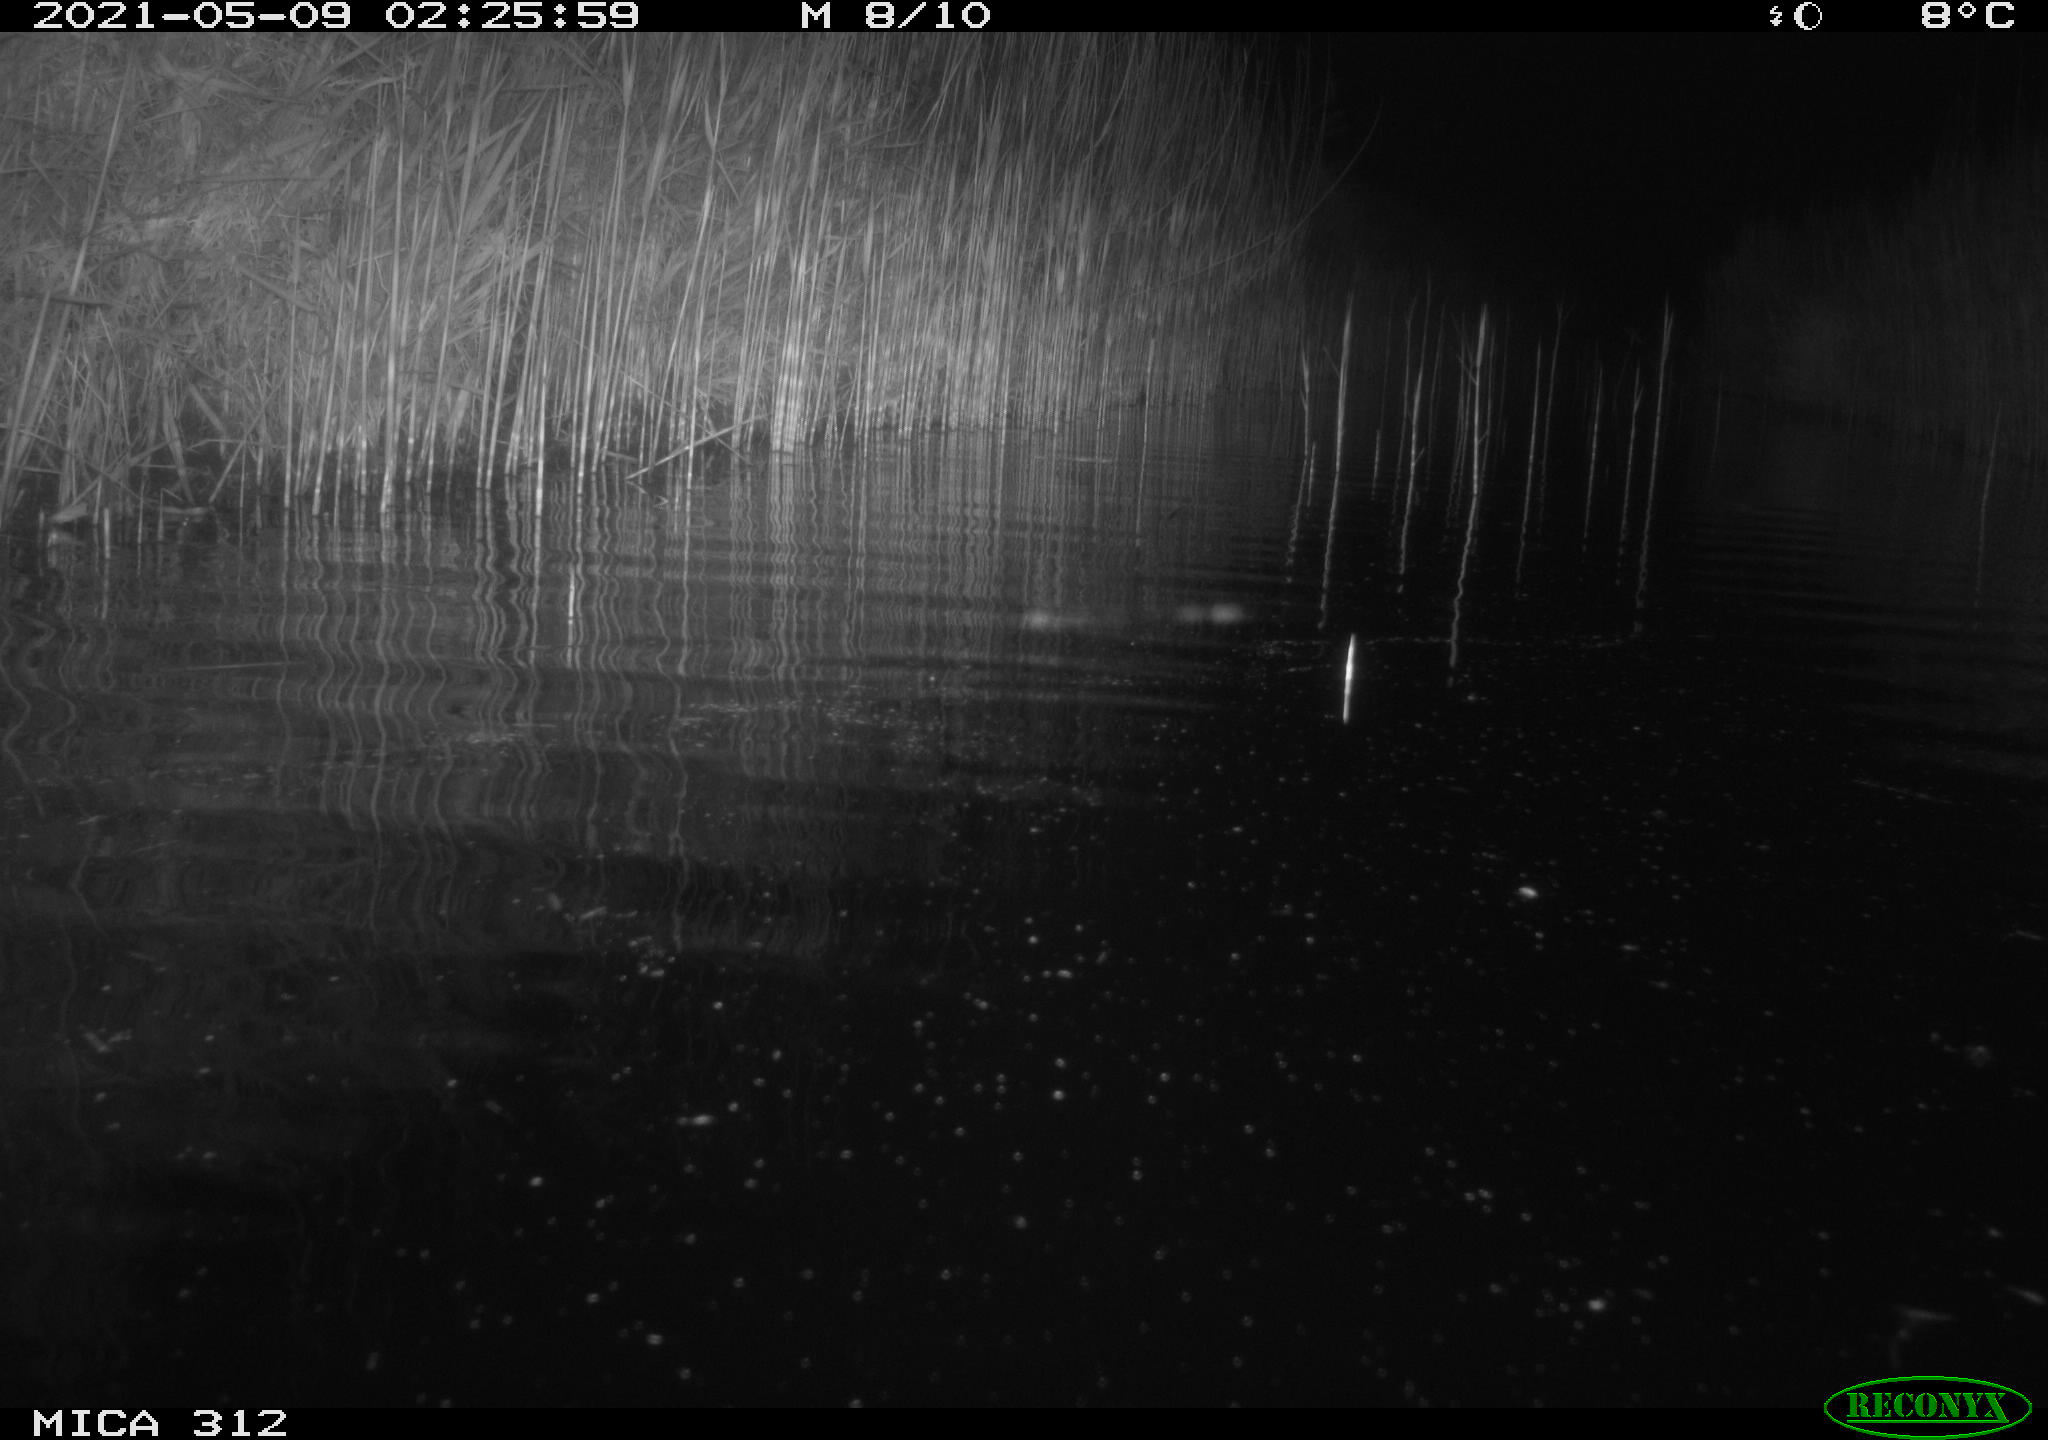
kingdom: Animalia
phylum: Chordata
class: Mammalia
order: Rodentia
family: Cricetidae
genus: Ondatra
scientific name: Ondatra zibethicus
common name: Muskrat
